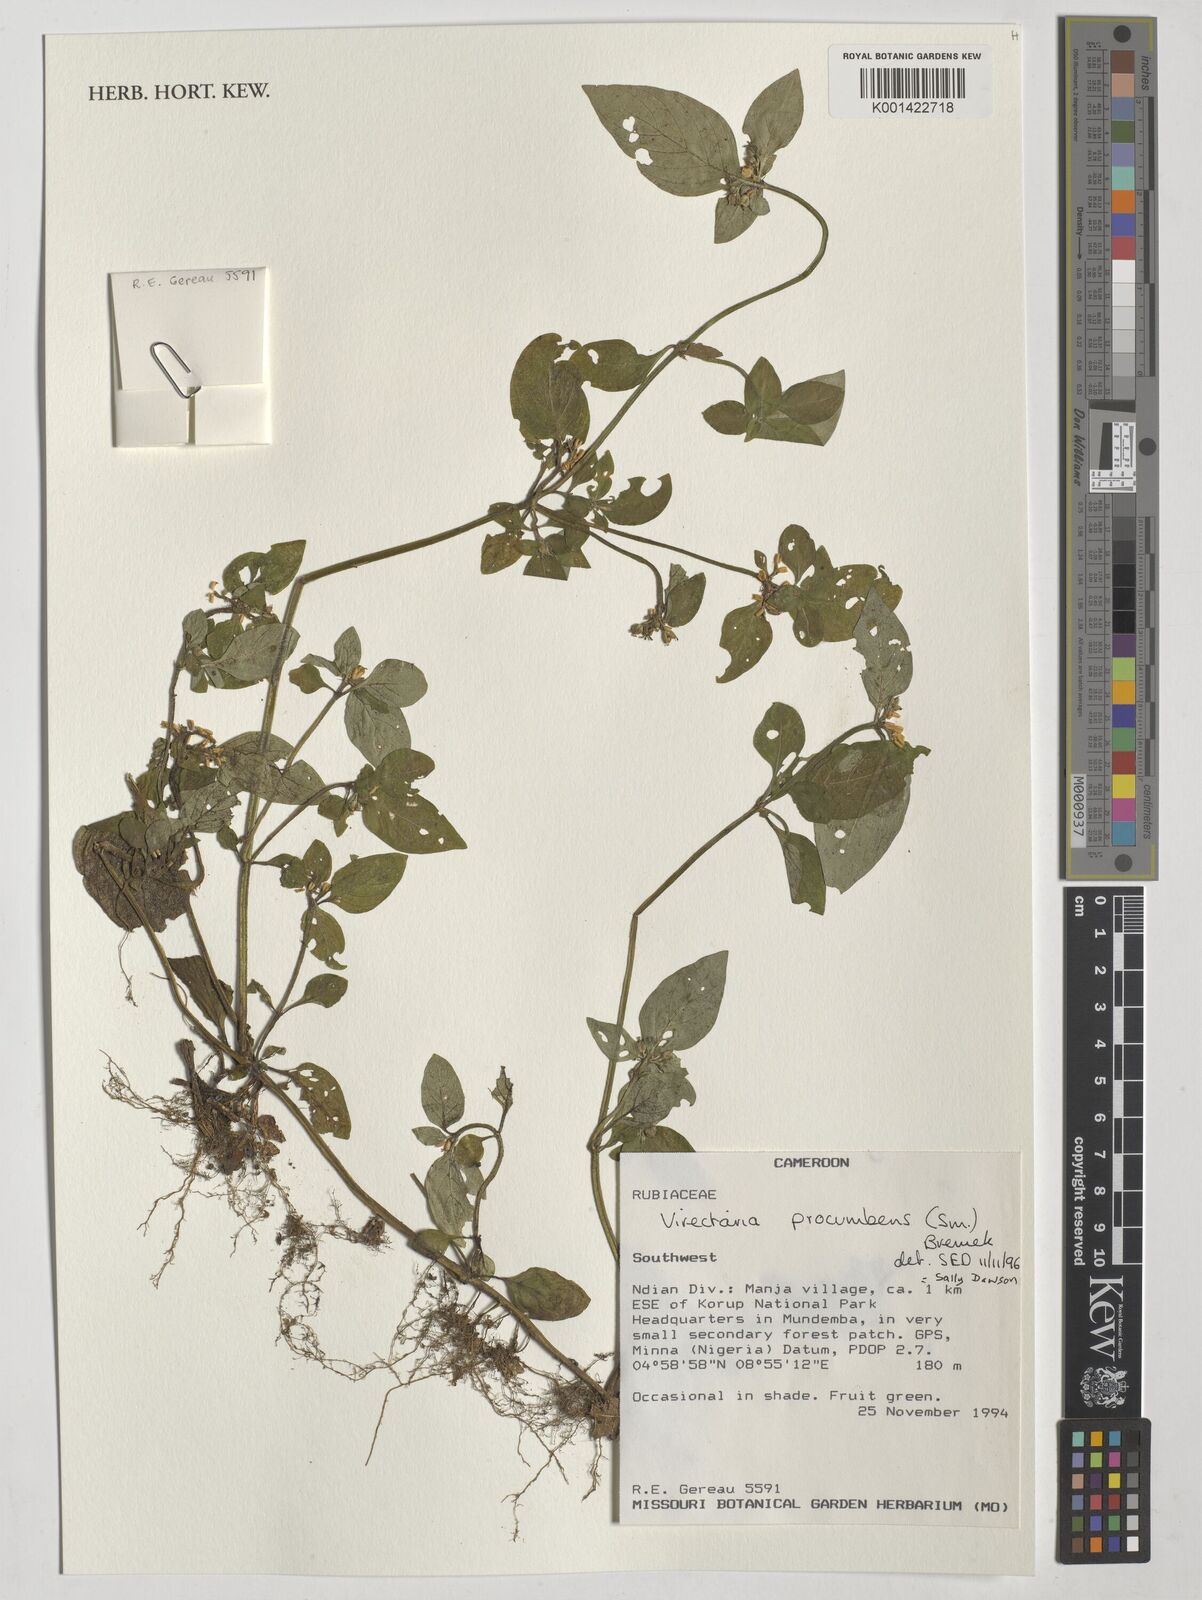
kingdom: Plantae
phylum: Tracheophyta
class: Magnoliopsida
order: Gentianales
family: Rubiaceae
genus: Virectaria
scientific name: Virectaria procumbens
